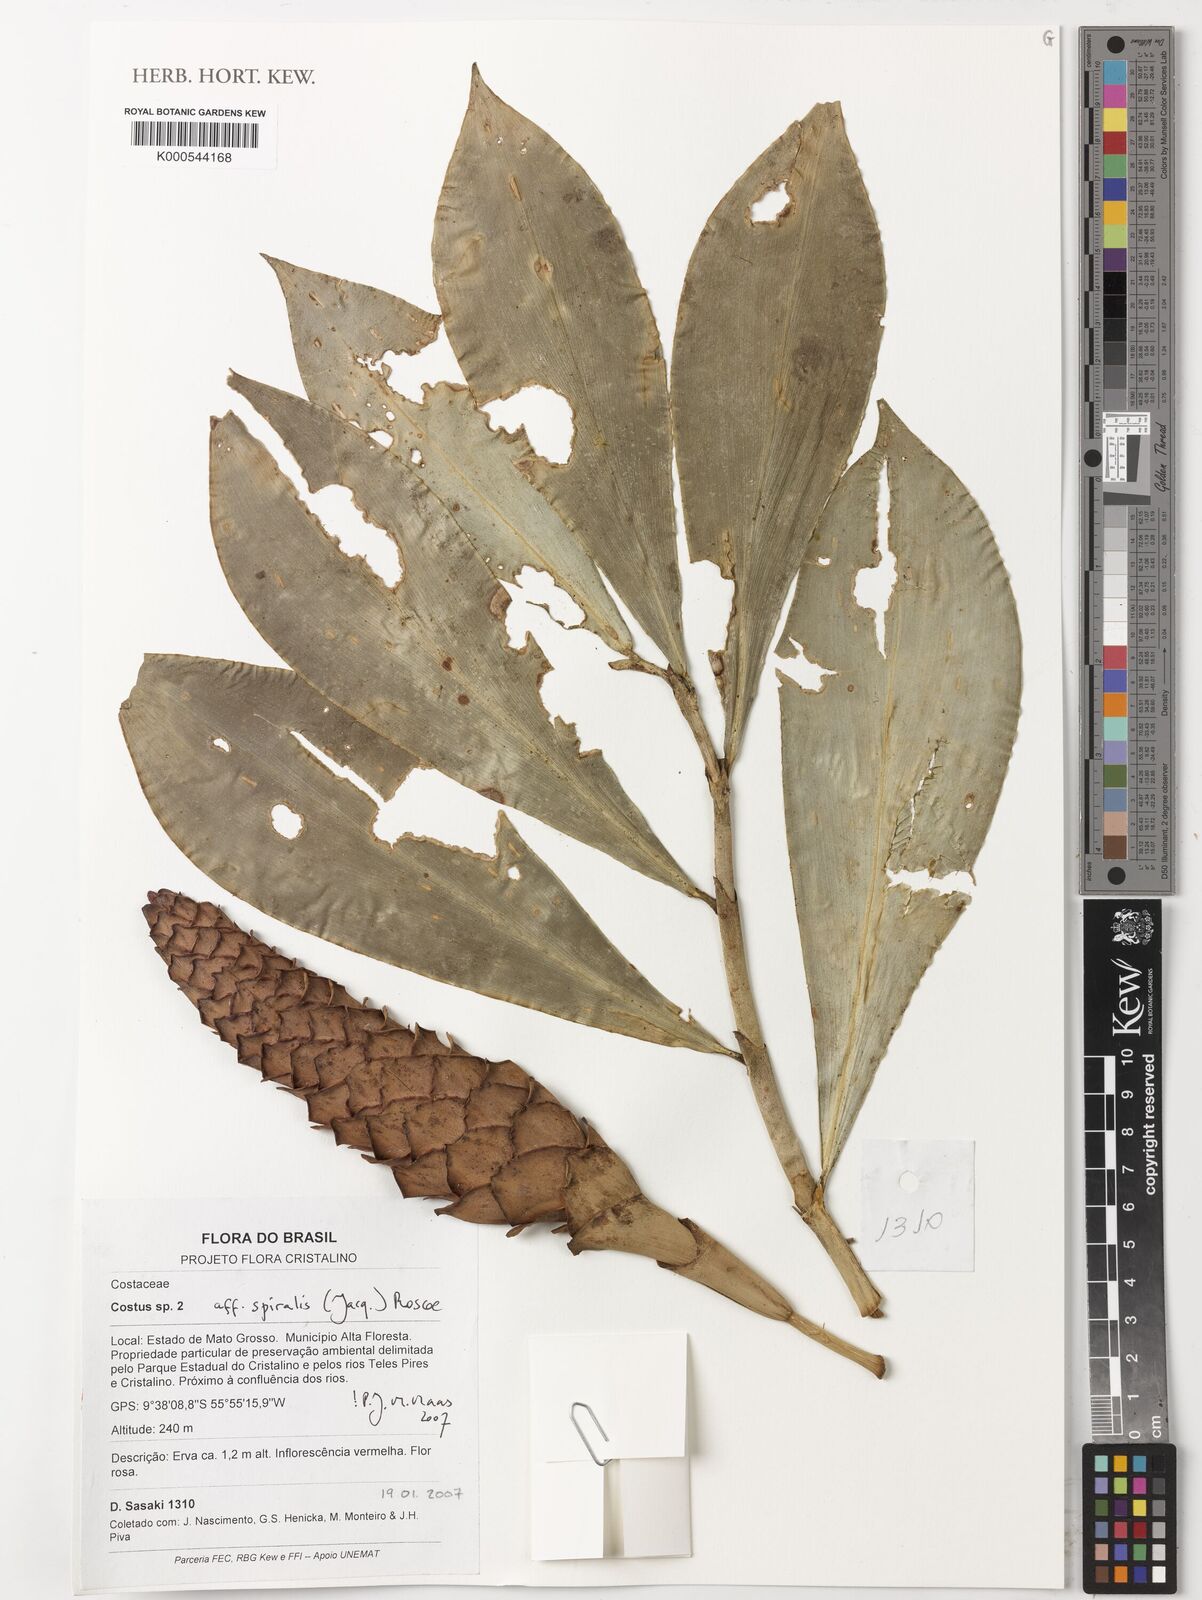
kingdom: Plantae
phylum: Tracheophyta
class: Liliopsida
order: Zingiberales
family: Costaceae
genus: Costus
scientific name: Costus spiralis
